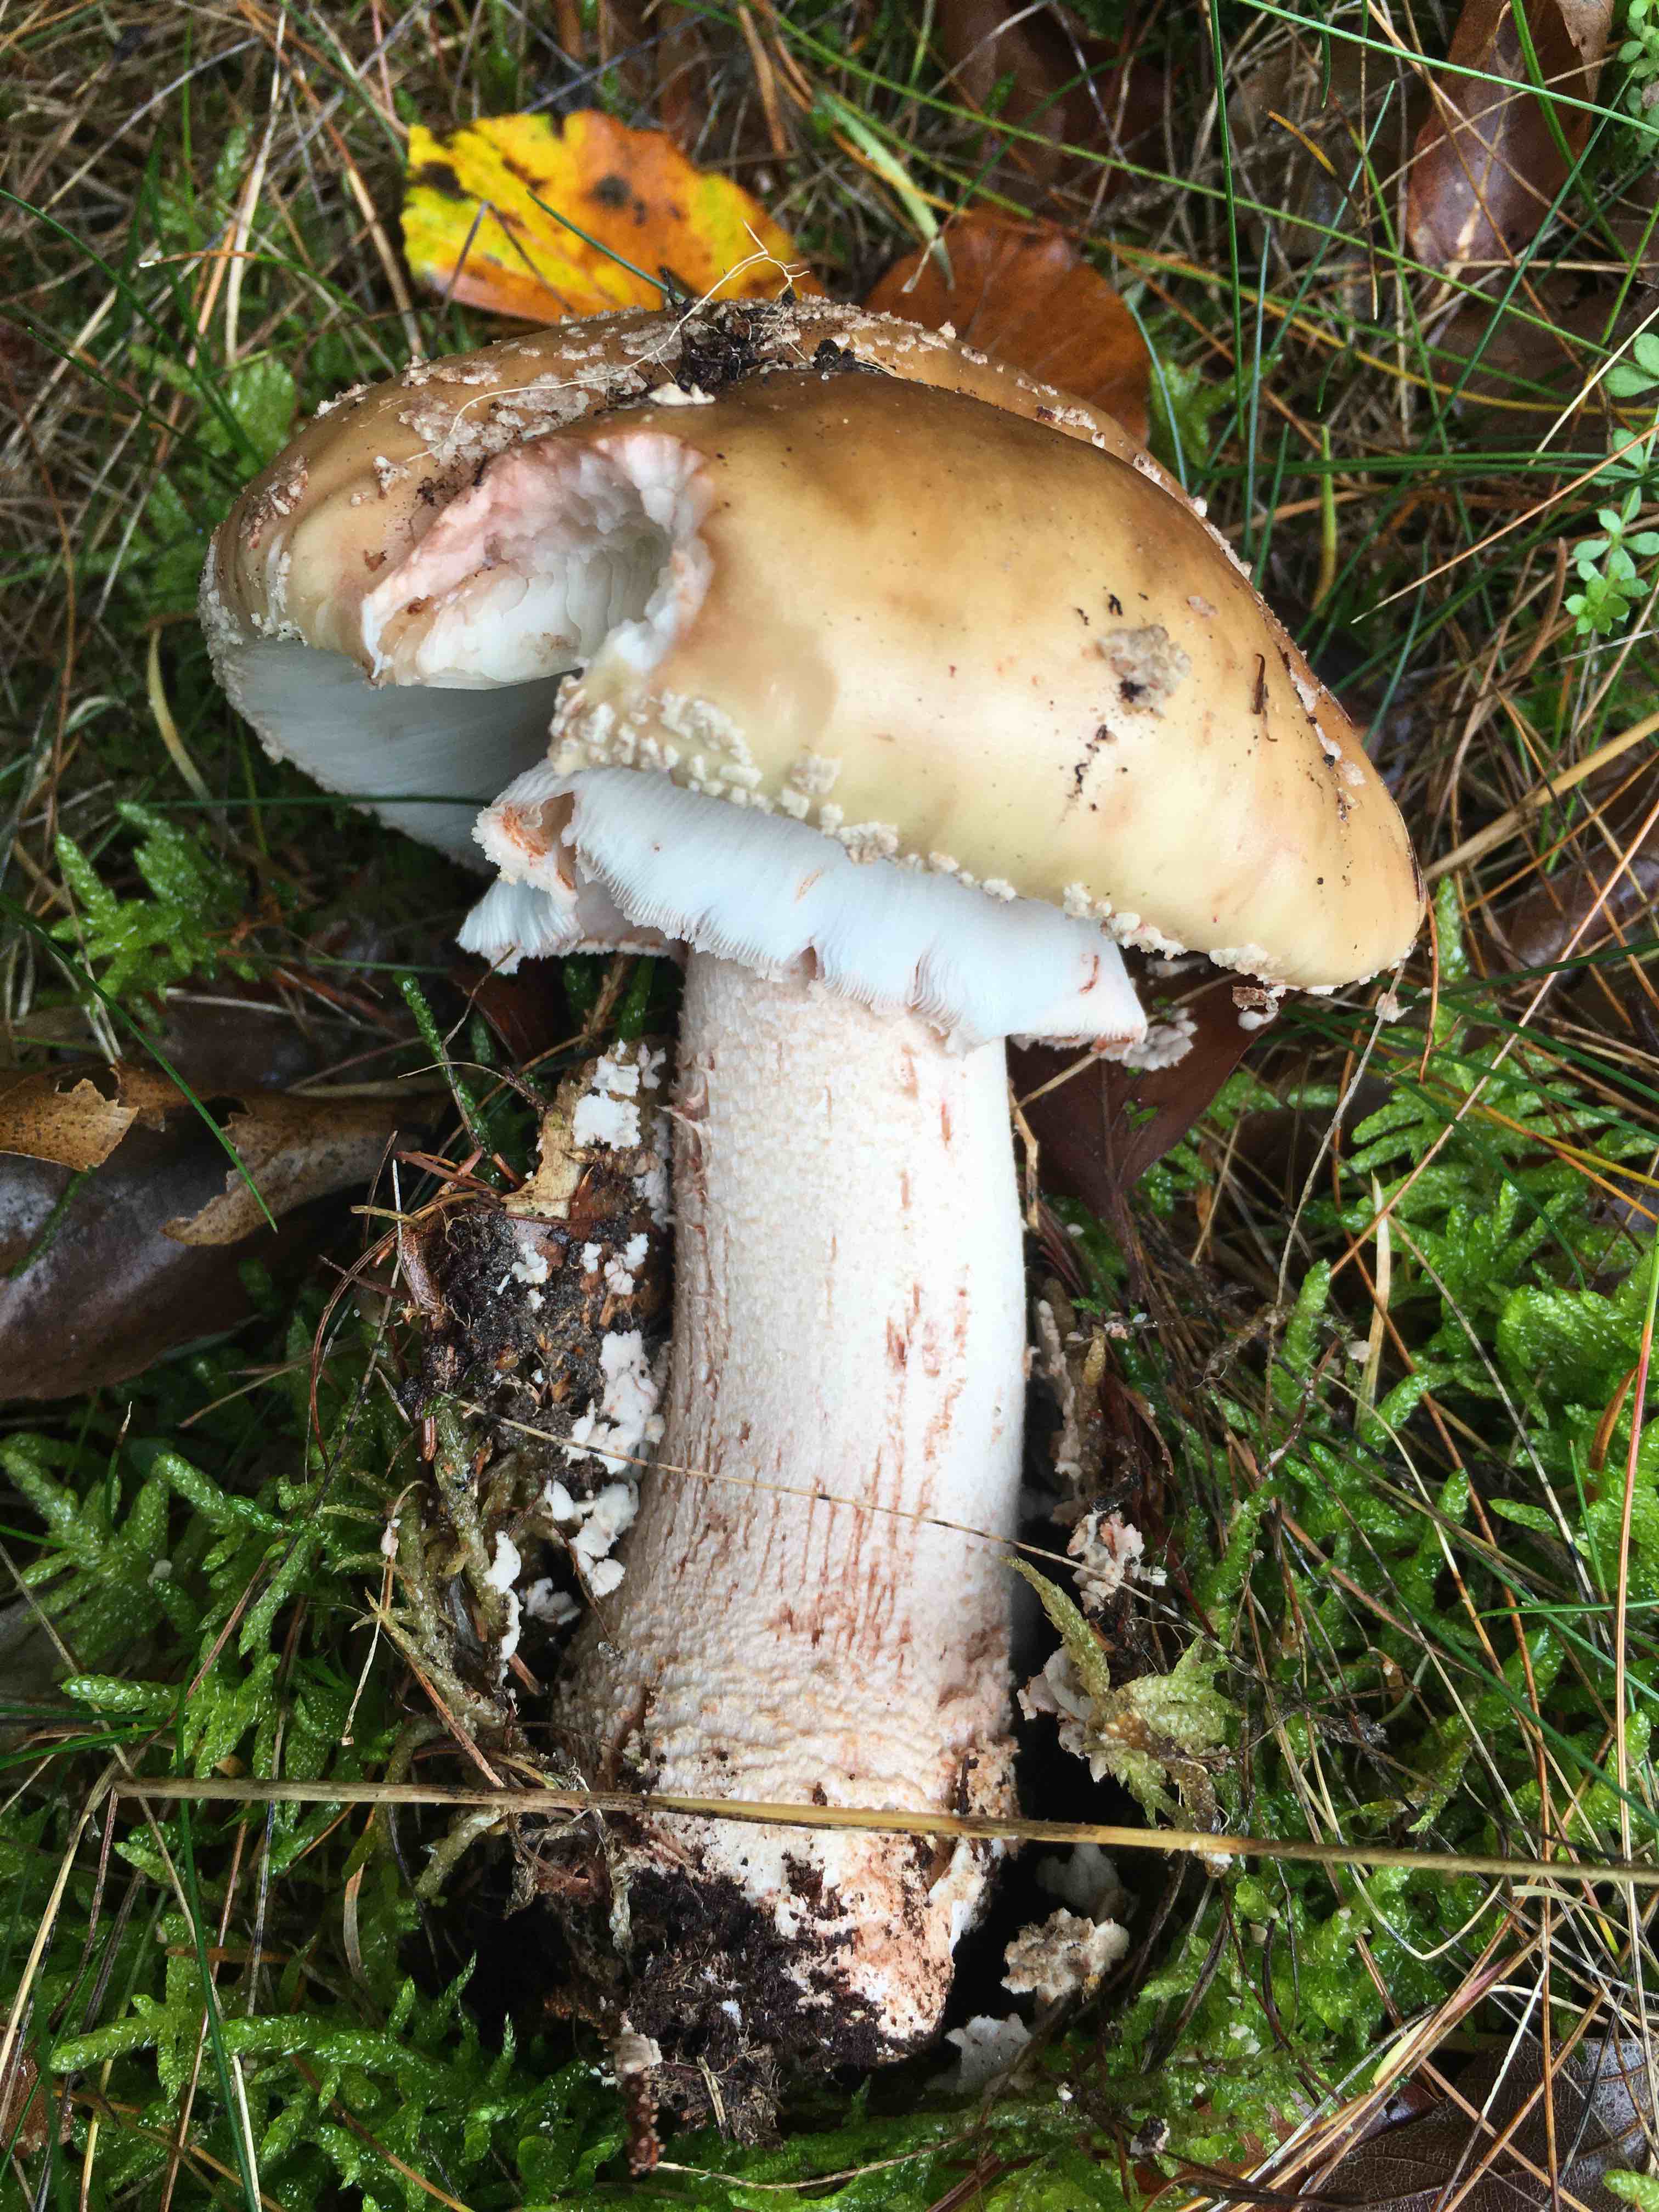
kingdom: Fungi
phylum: Basidiomycota
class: Agaricomycetes
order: Agaricales
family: Amanitaceae
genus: Amanita
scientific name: Amanita rubescens
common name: rødmende fluesvamp
